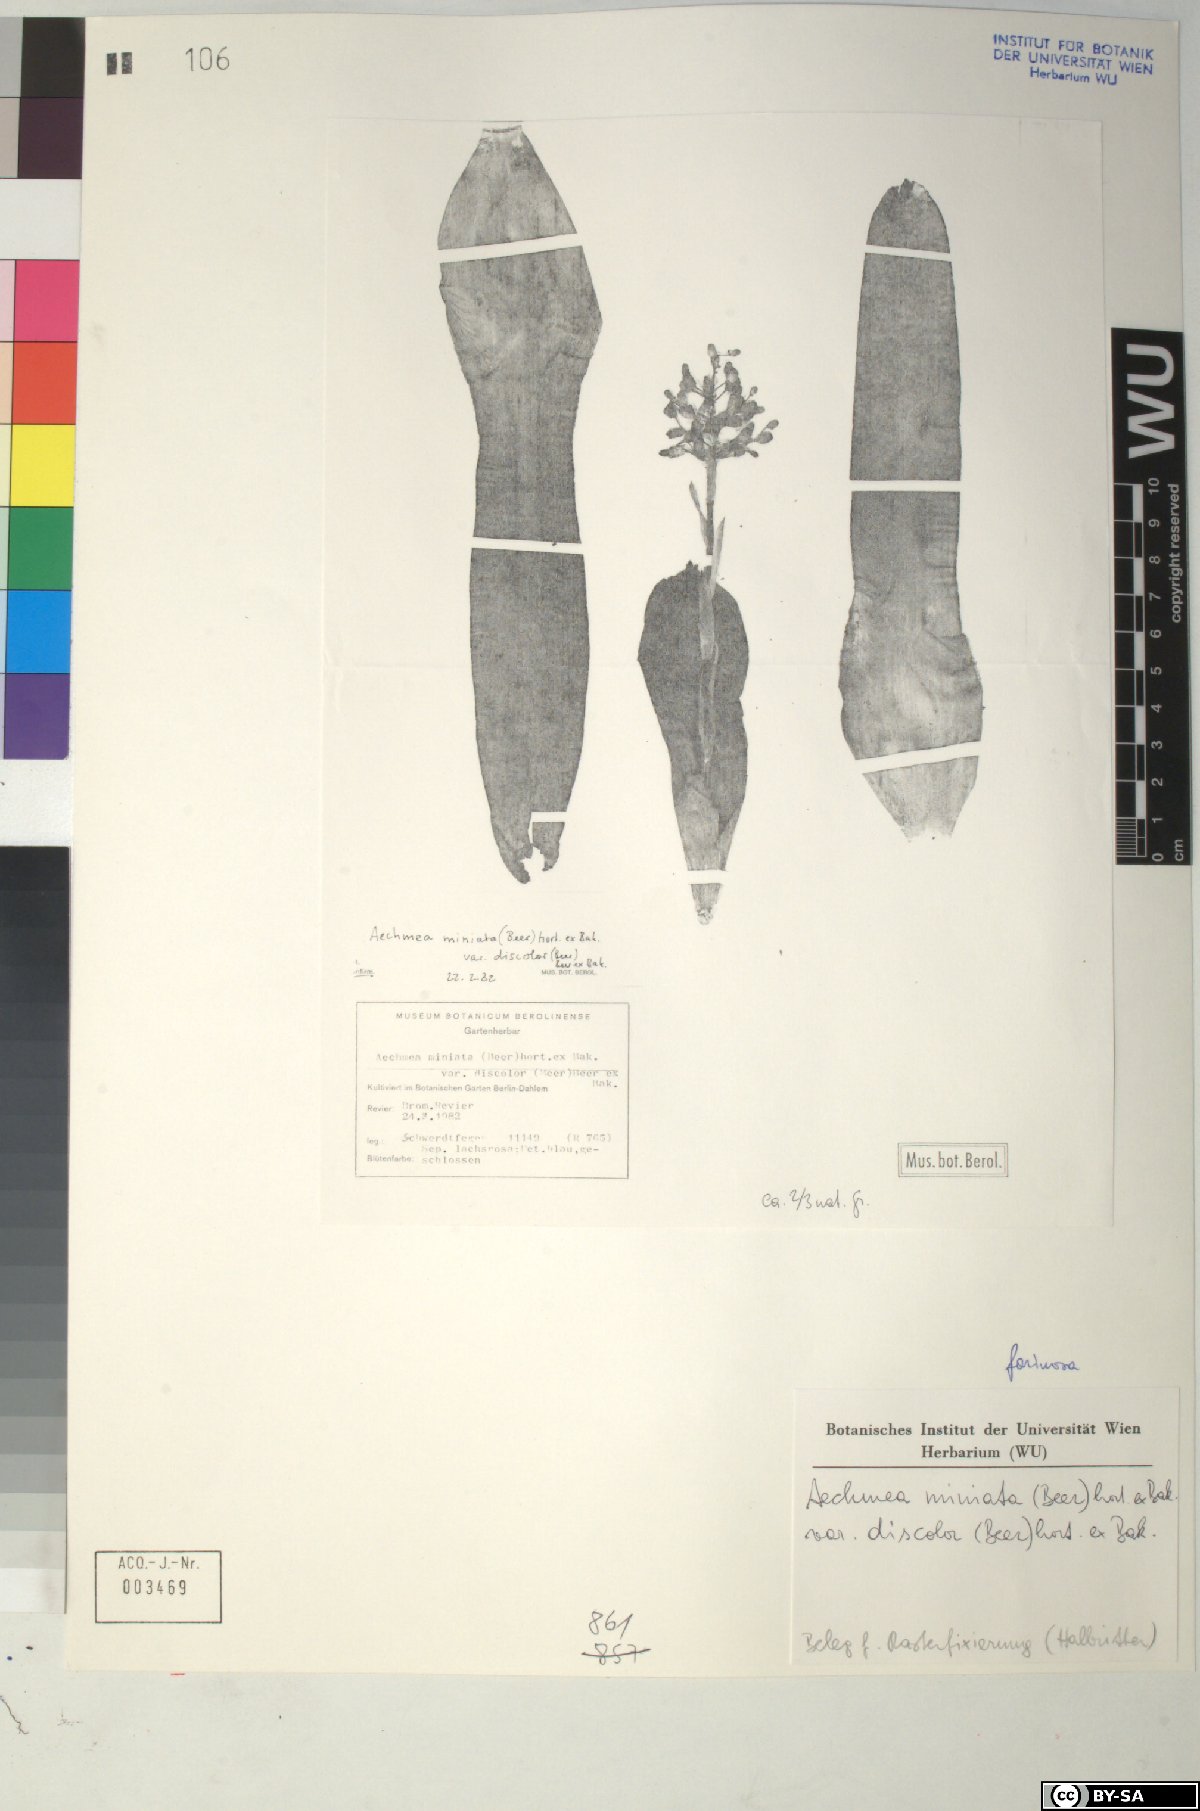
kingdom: Plantae
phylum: Tracheophyta
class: Liliopsida
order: Poales
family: Bromeliaceae
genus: Aechmea
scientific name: Aechmea
